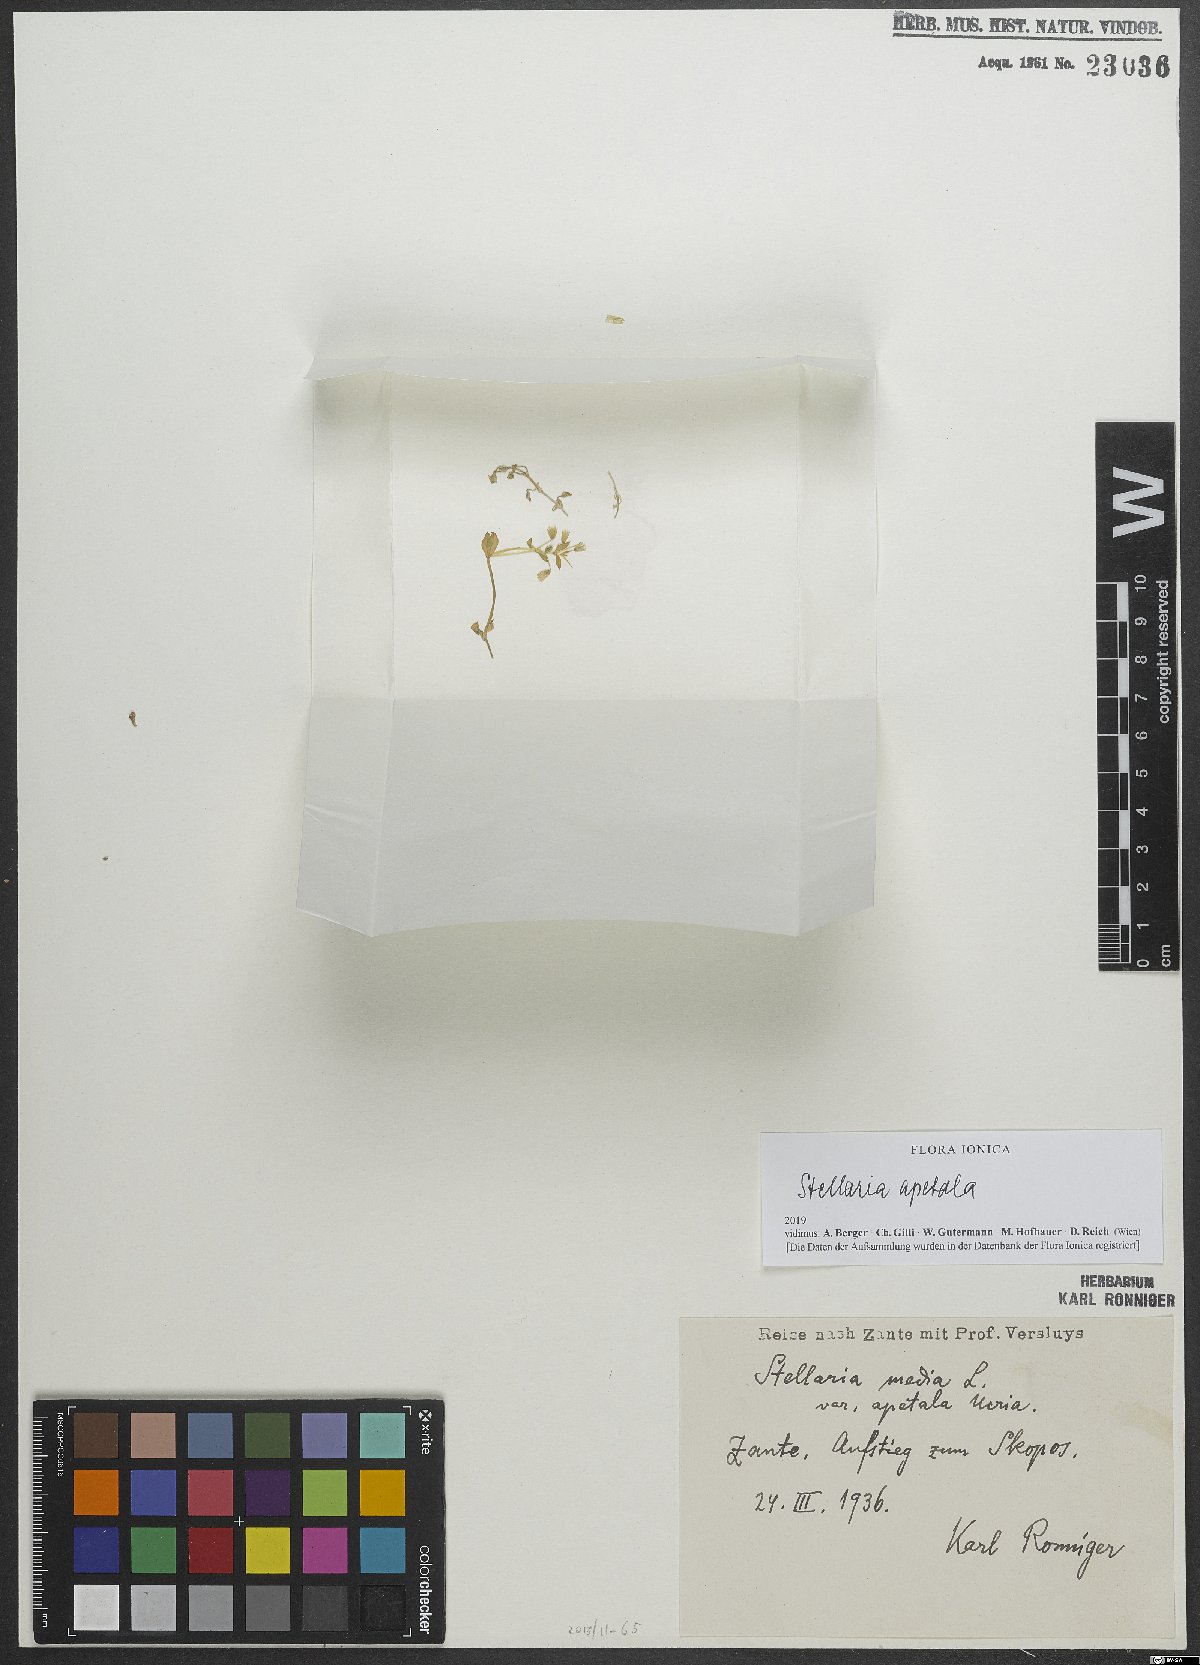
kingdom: Plantae
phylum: Tracheophyta
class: Magnoliopsida
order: Caryophyllales
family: Caryophyllaceae
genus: Stellaria
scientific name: Stellaria apetala
